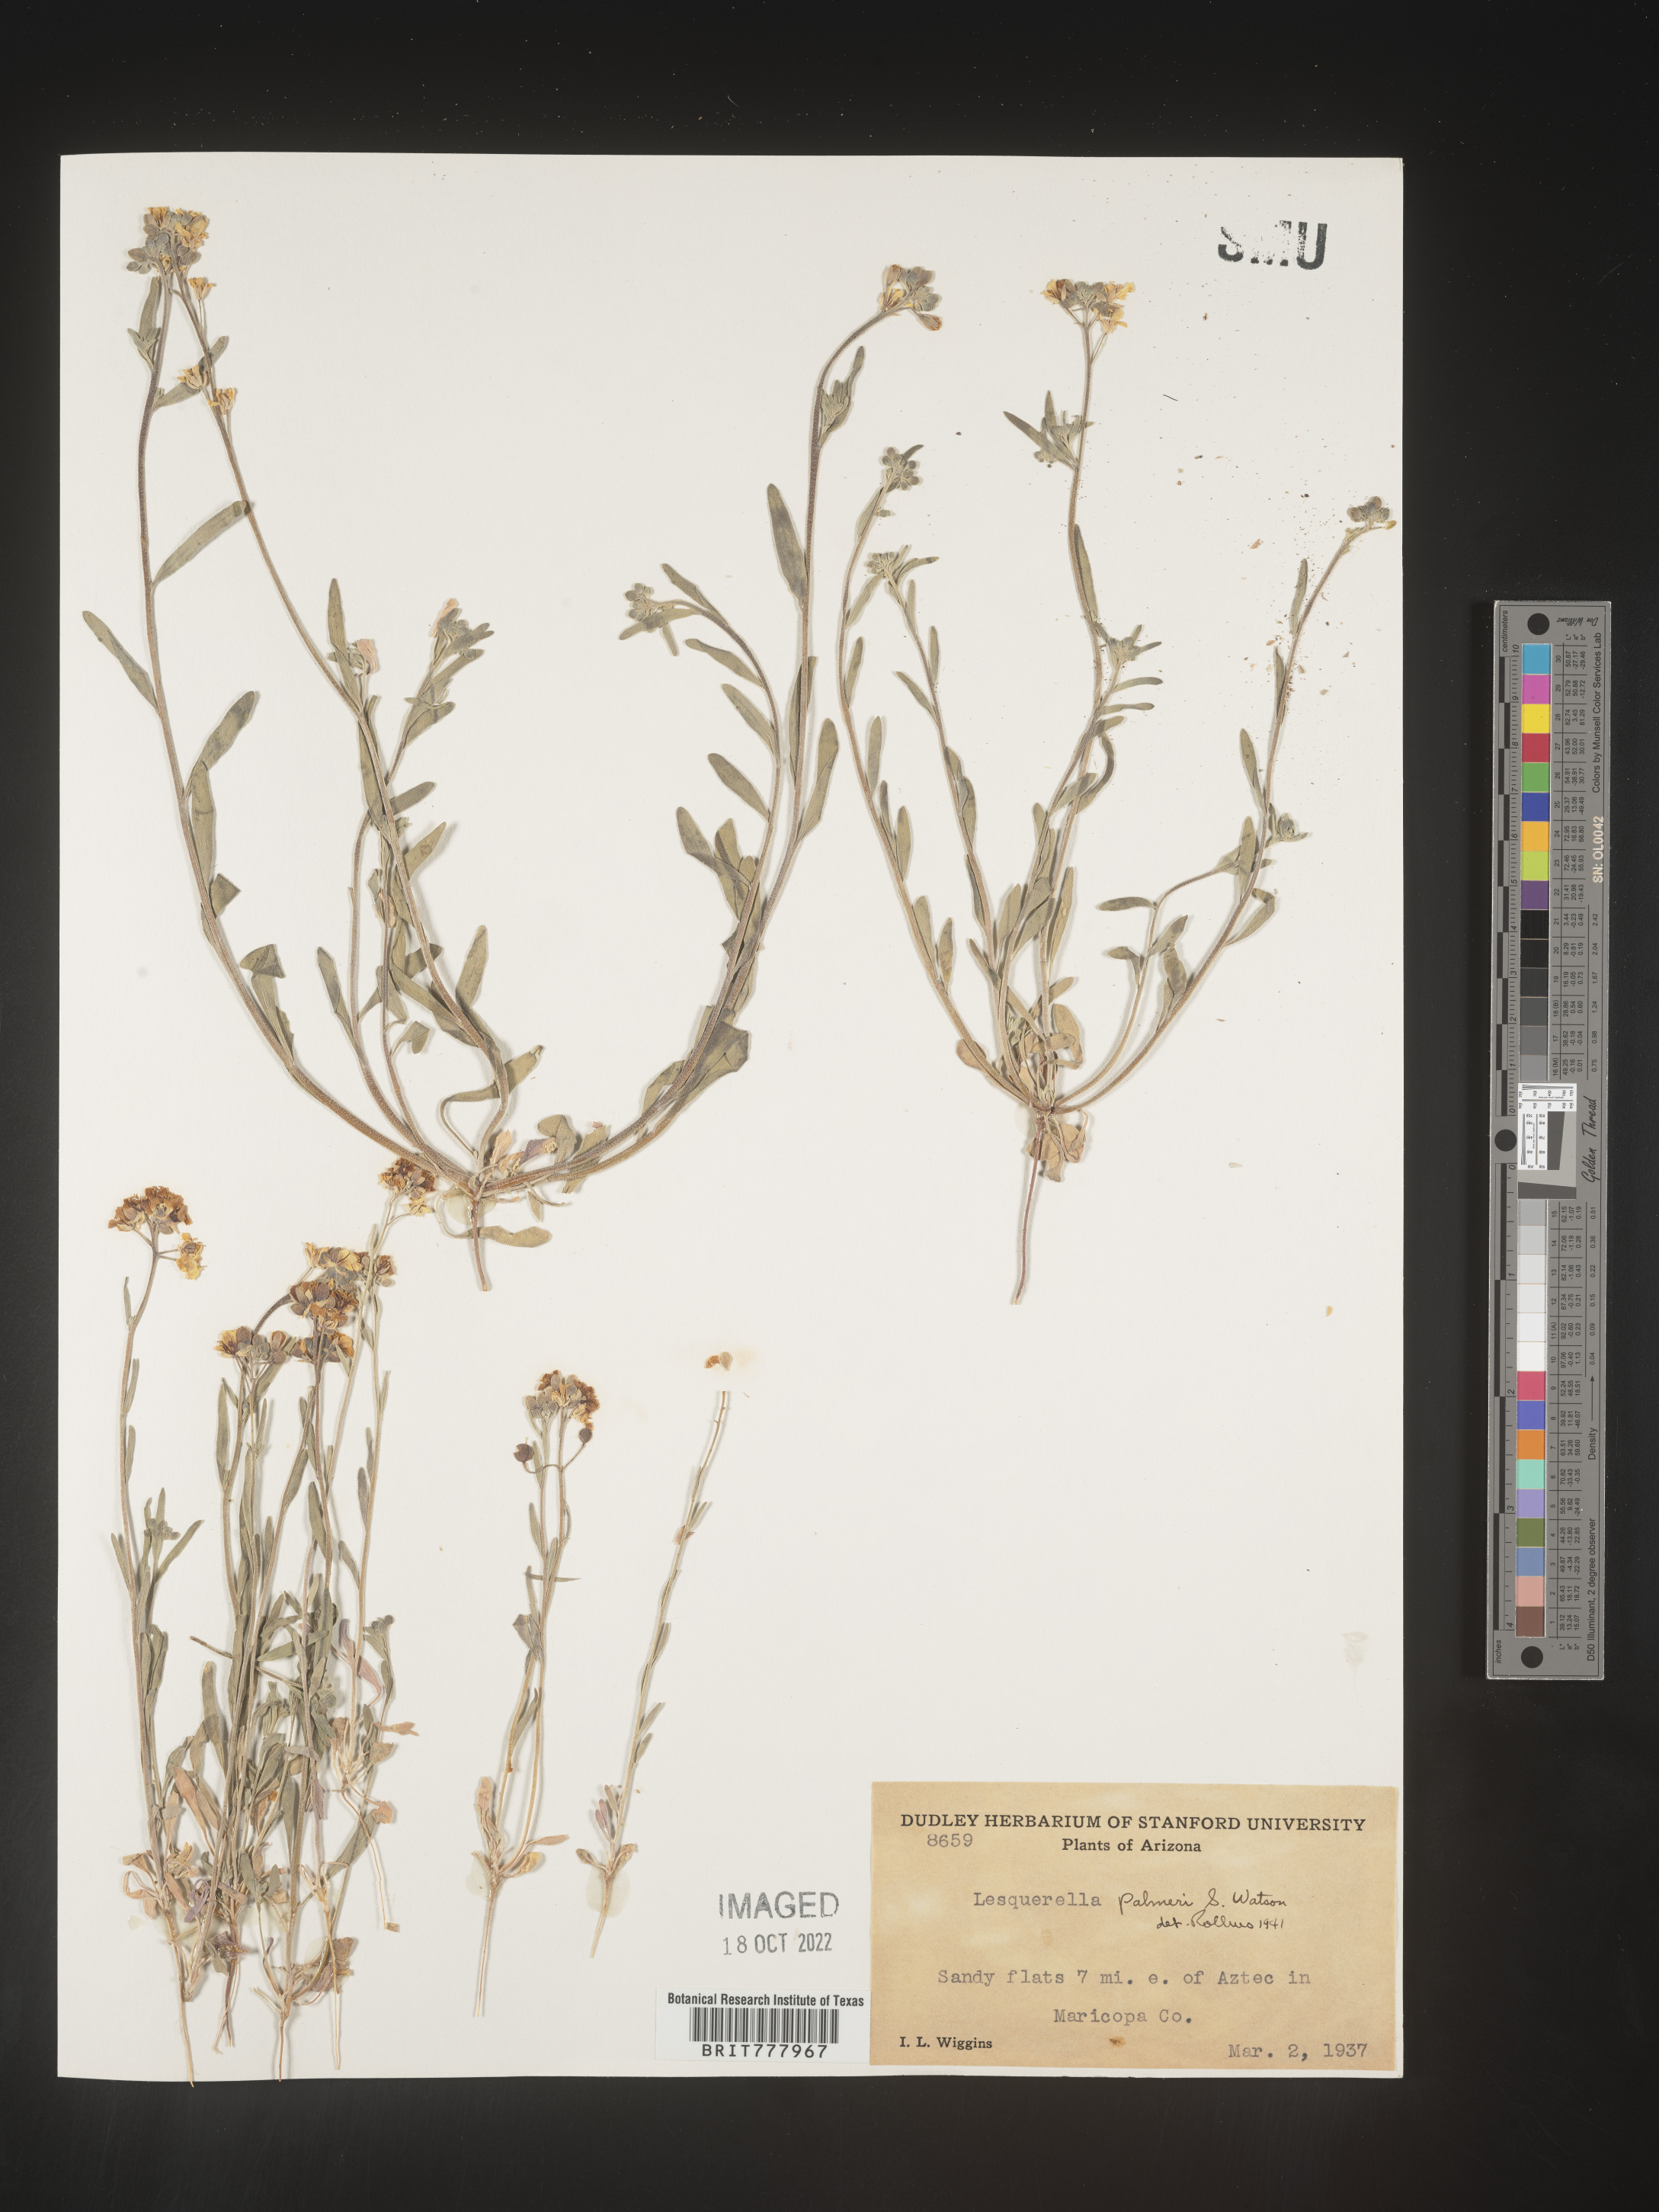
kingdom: Chromista
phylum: Cercozoa
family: Psammonobiotidae
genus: Lesquerella
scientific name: Lesquerella
